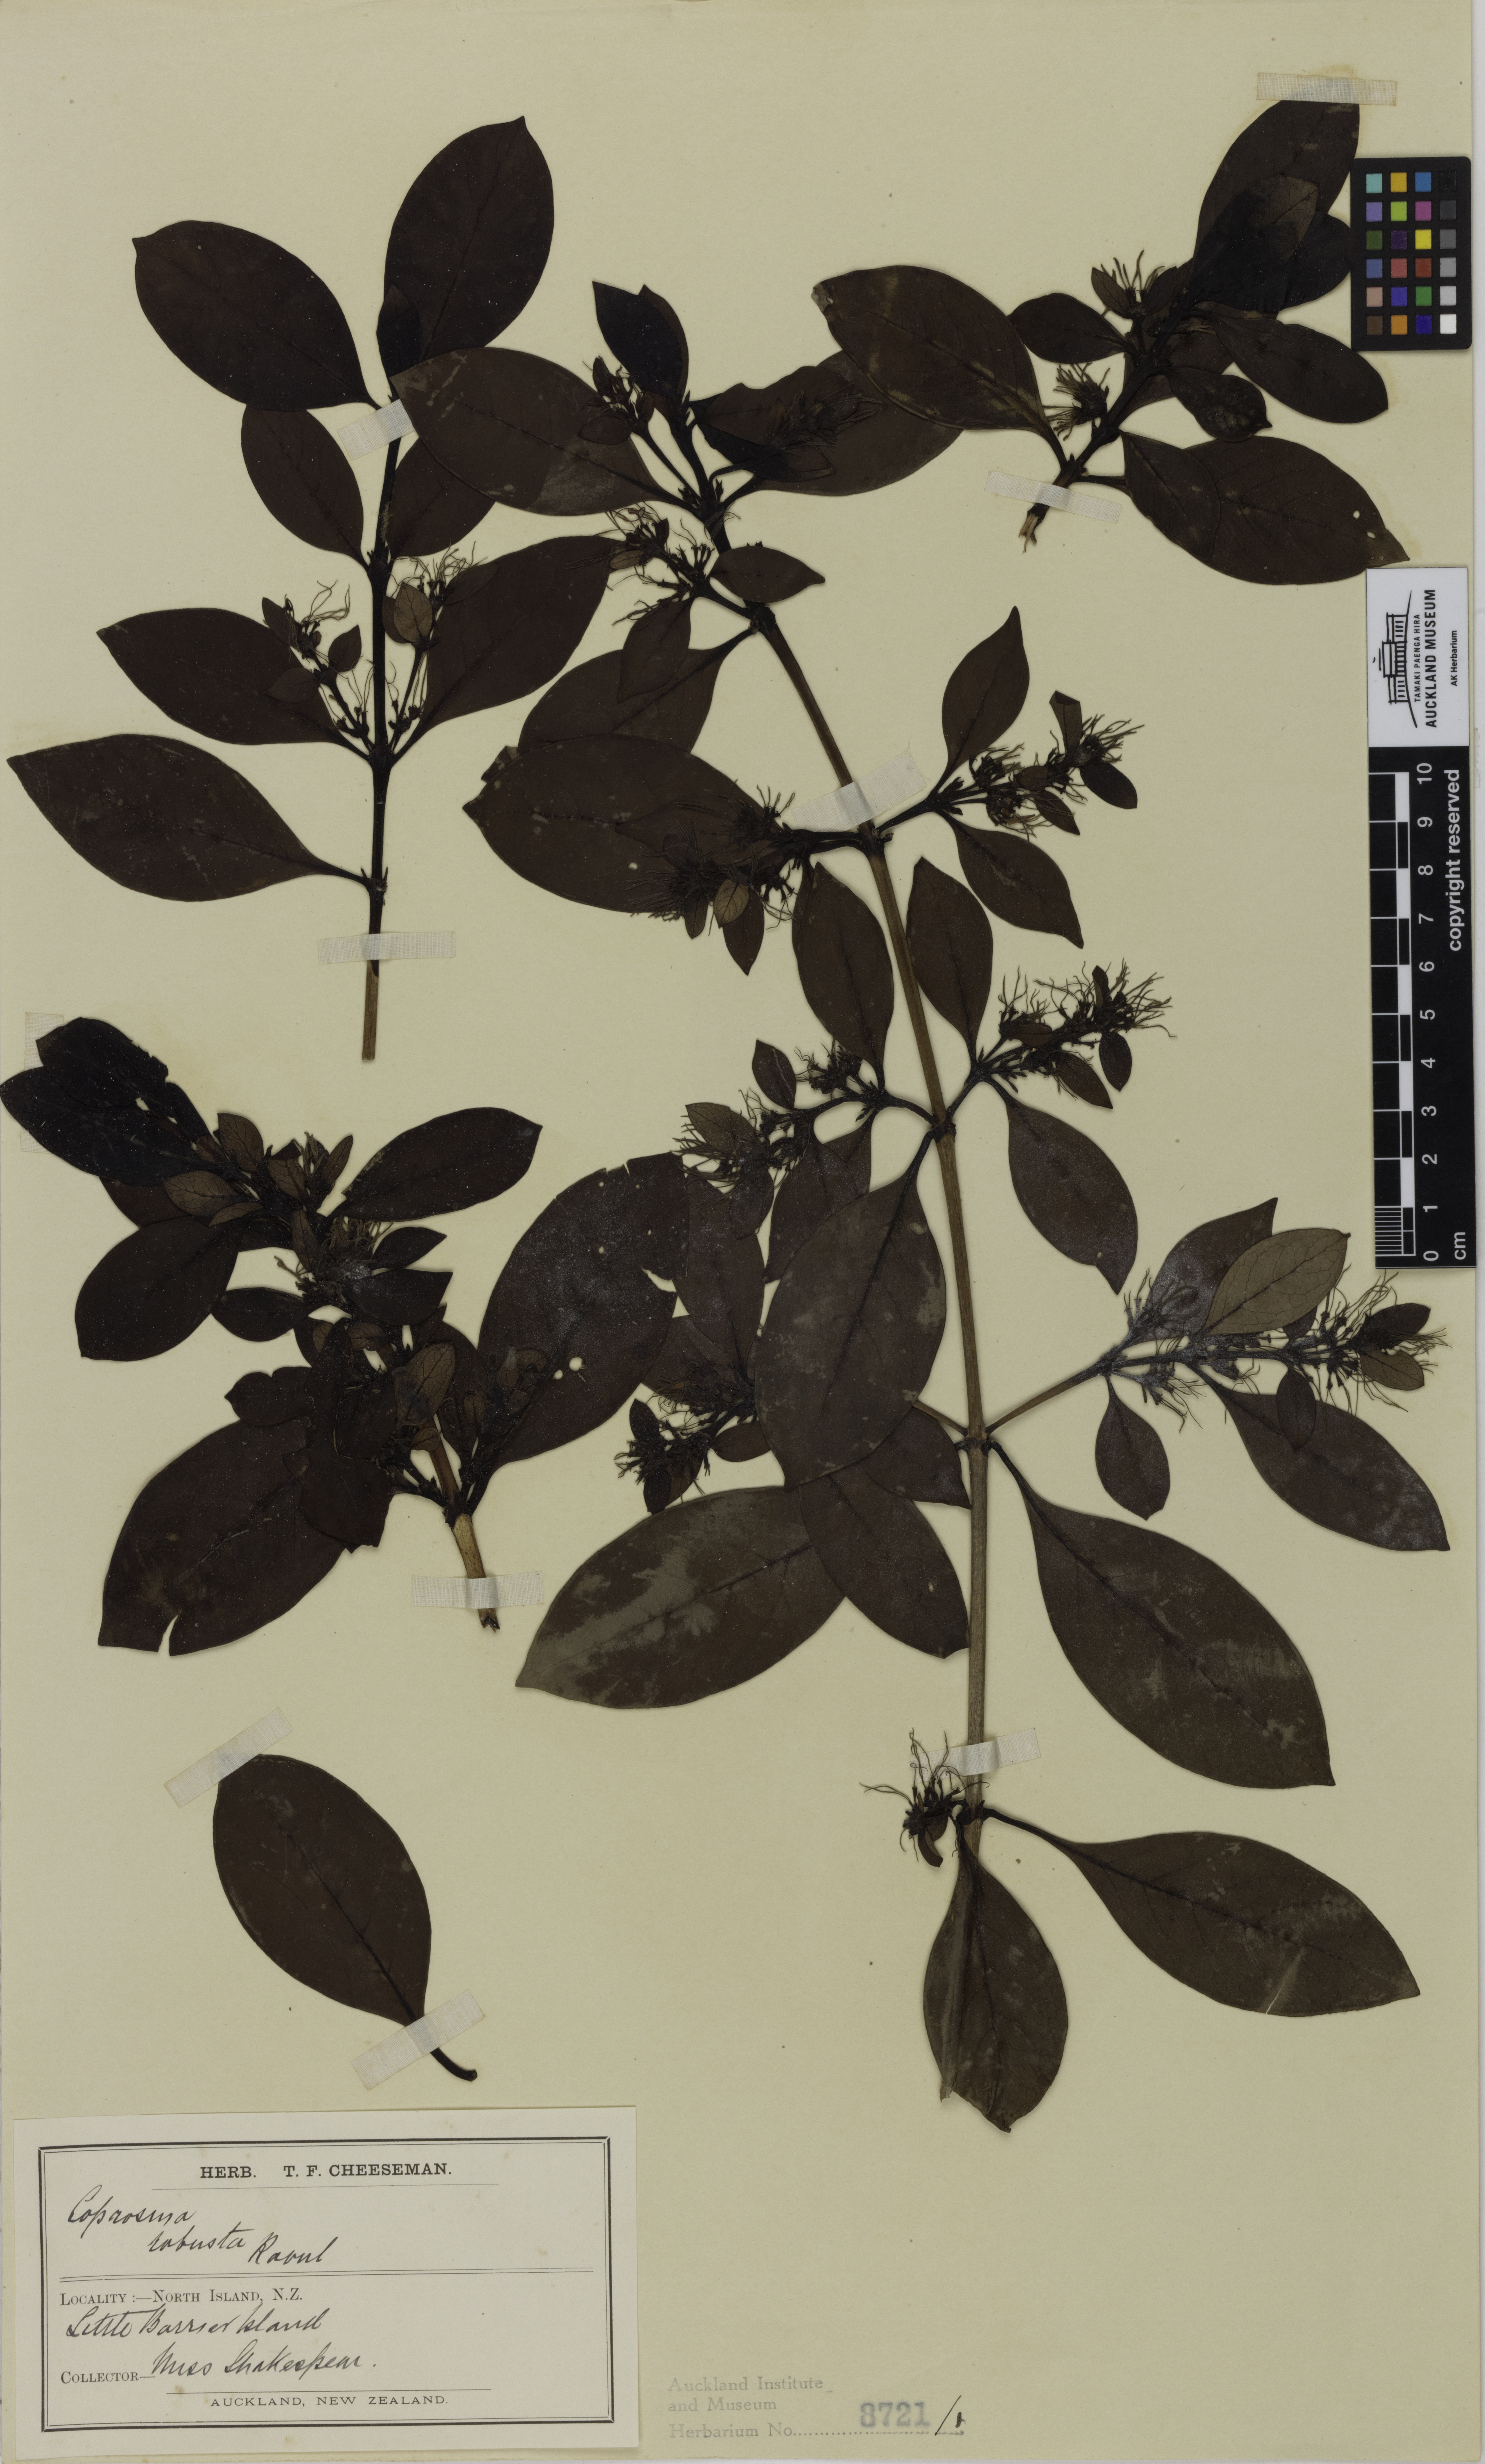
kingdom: Plantae
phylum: Tracheophyta
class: Magnoliopsida
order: Gentianales
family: Rubiaceae
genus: Coprosma
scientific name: Coprosma robusta
